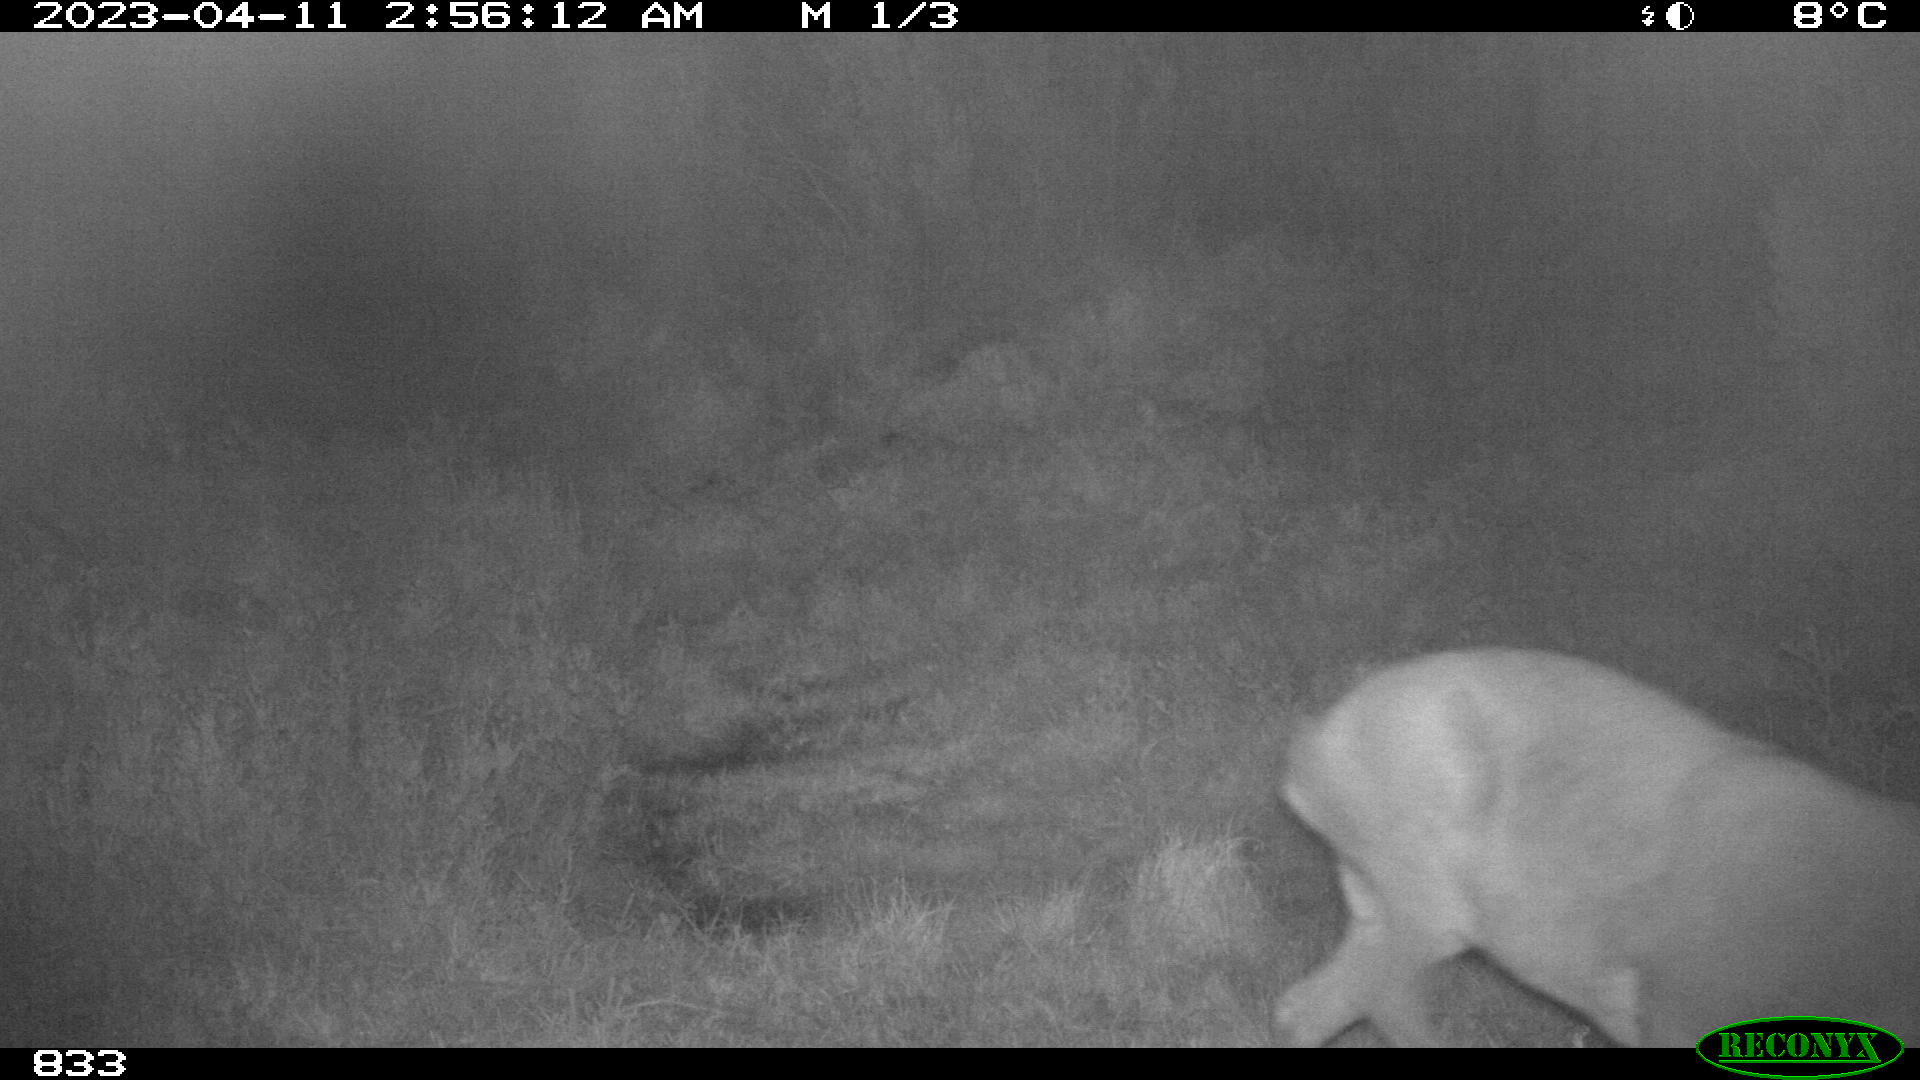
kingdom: Animalia
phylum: Chordata
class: Mammalia
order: Artiodactyla
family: Cervidae
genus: Capreolus
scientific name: Capreolus capreolus
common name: Western roe deer
